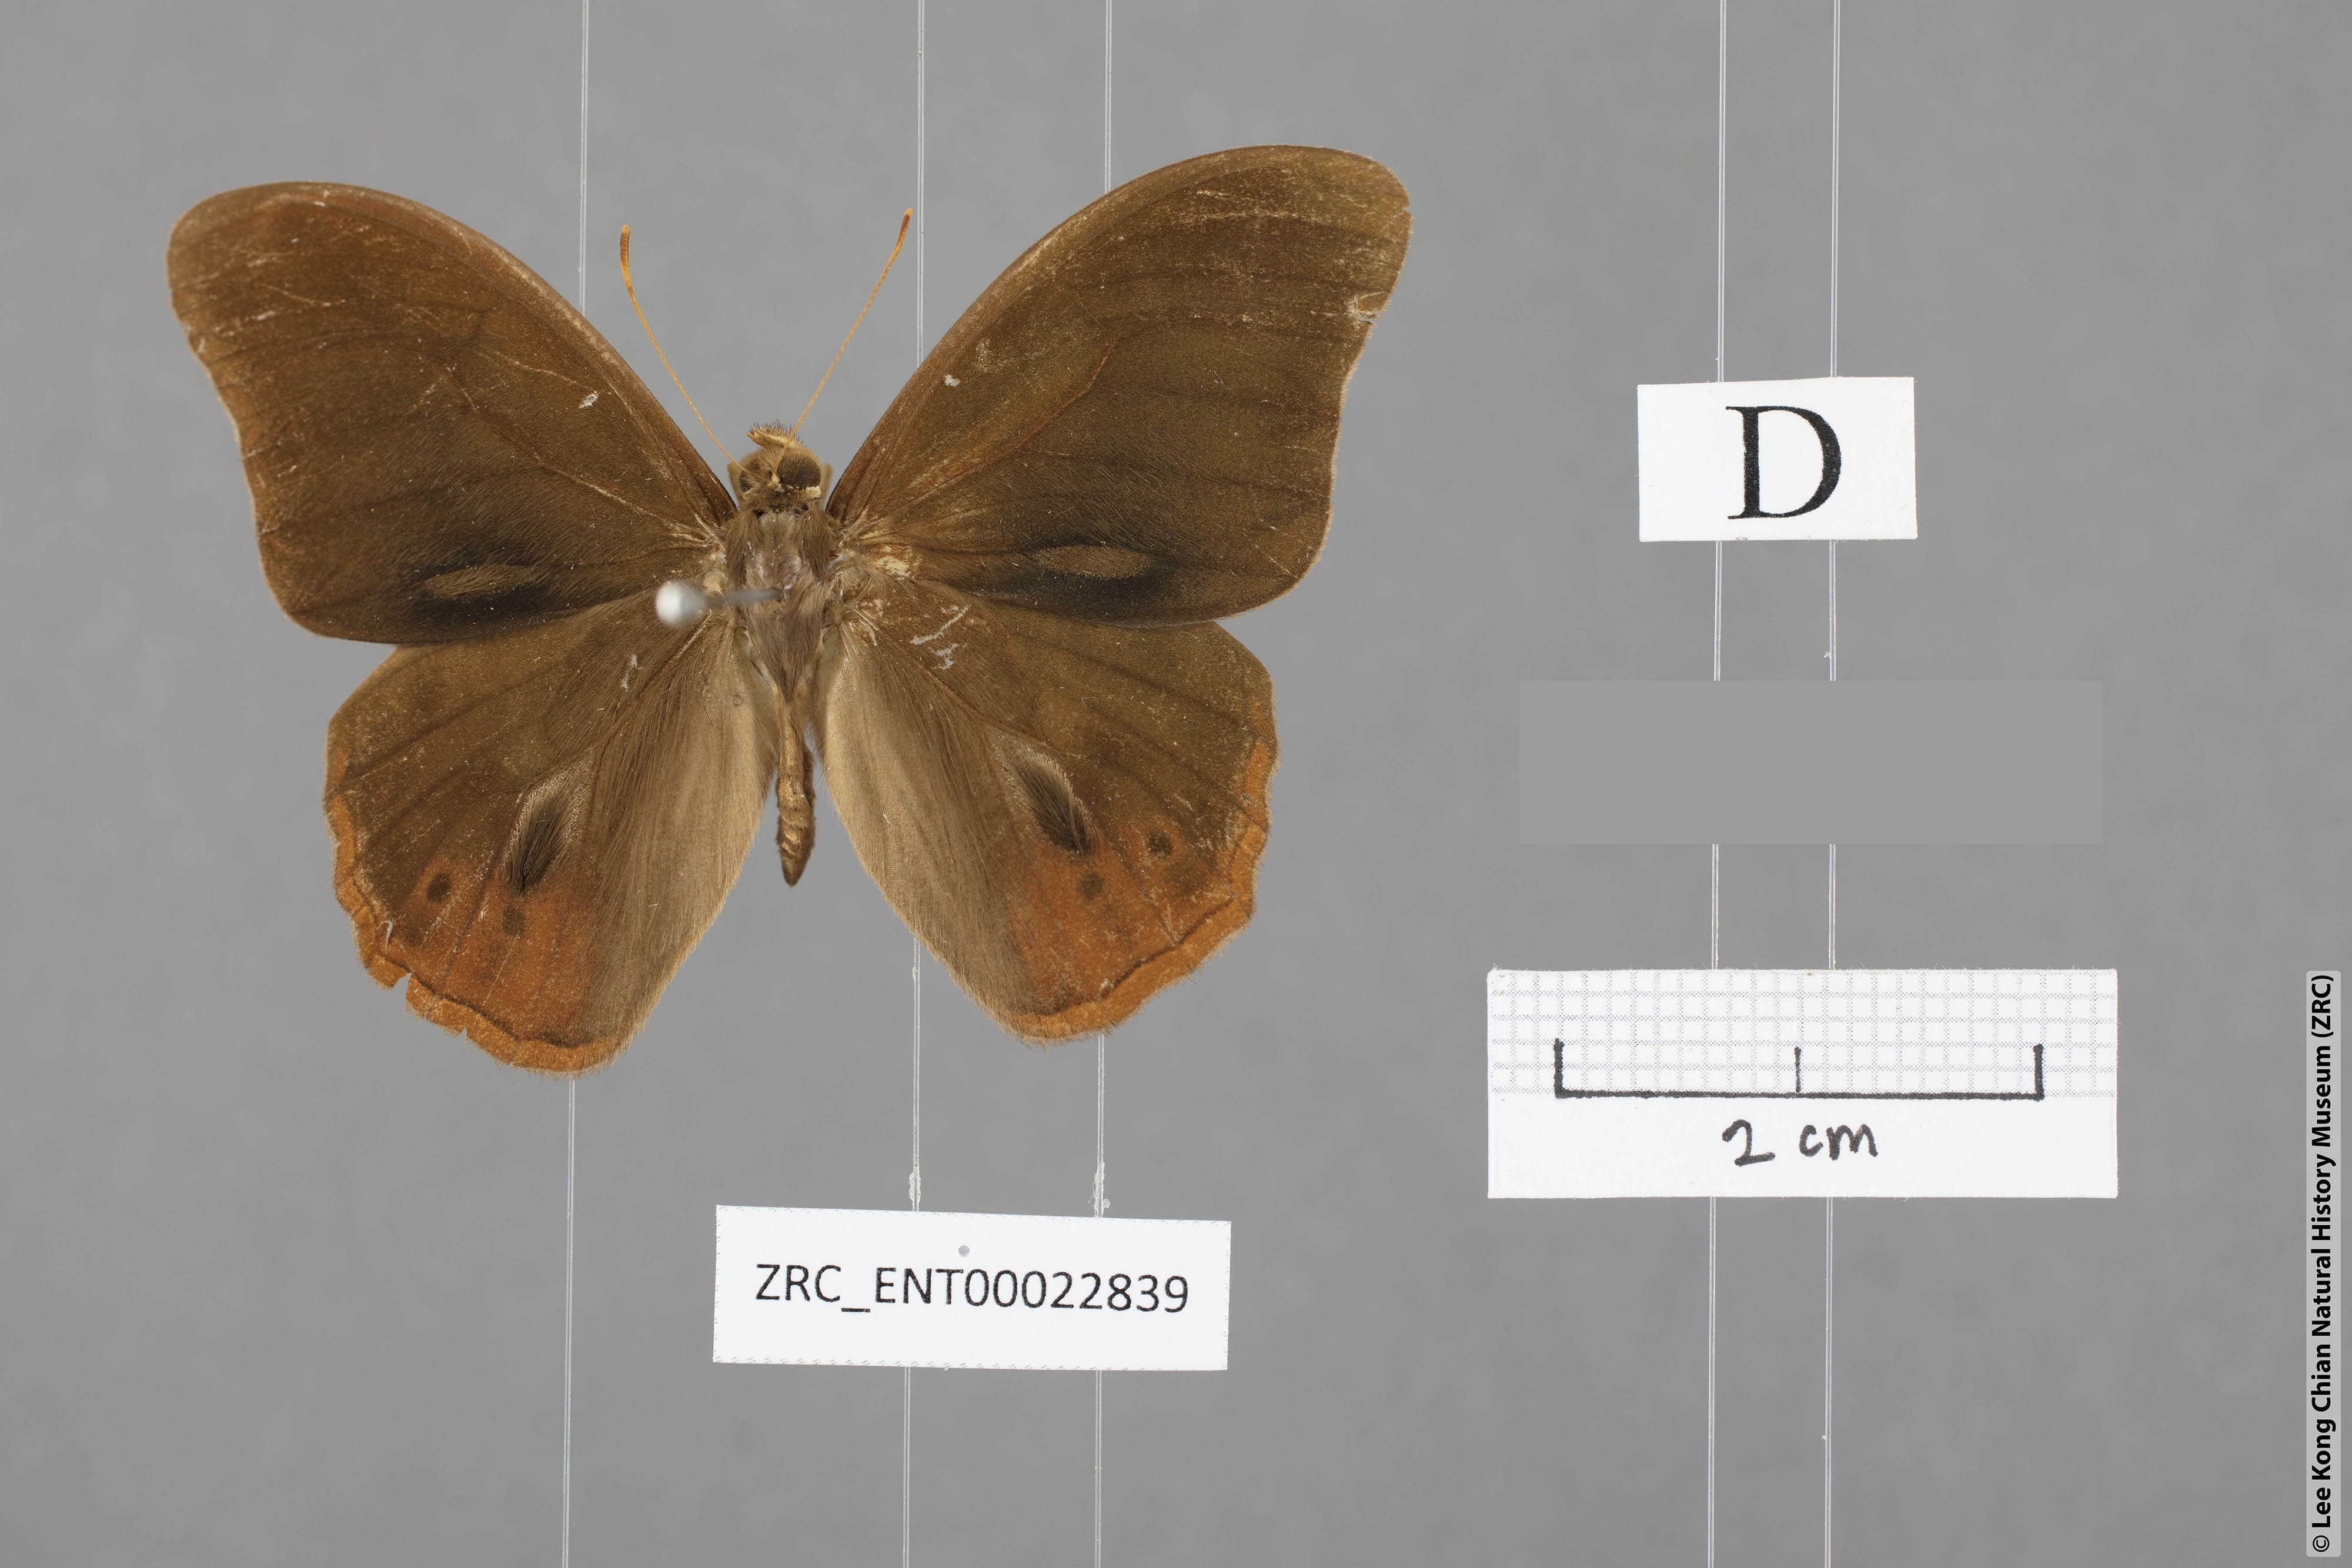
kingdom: Animalia
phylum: Arthropoda
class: Insecta
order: Lepidoptera
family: Nymphalidae
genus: Lethe
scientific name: Lethe minerva
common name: Banded red forester
